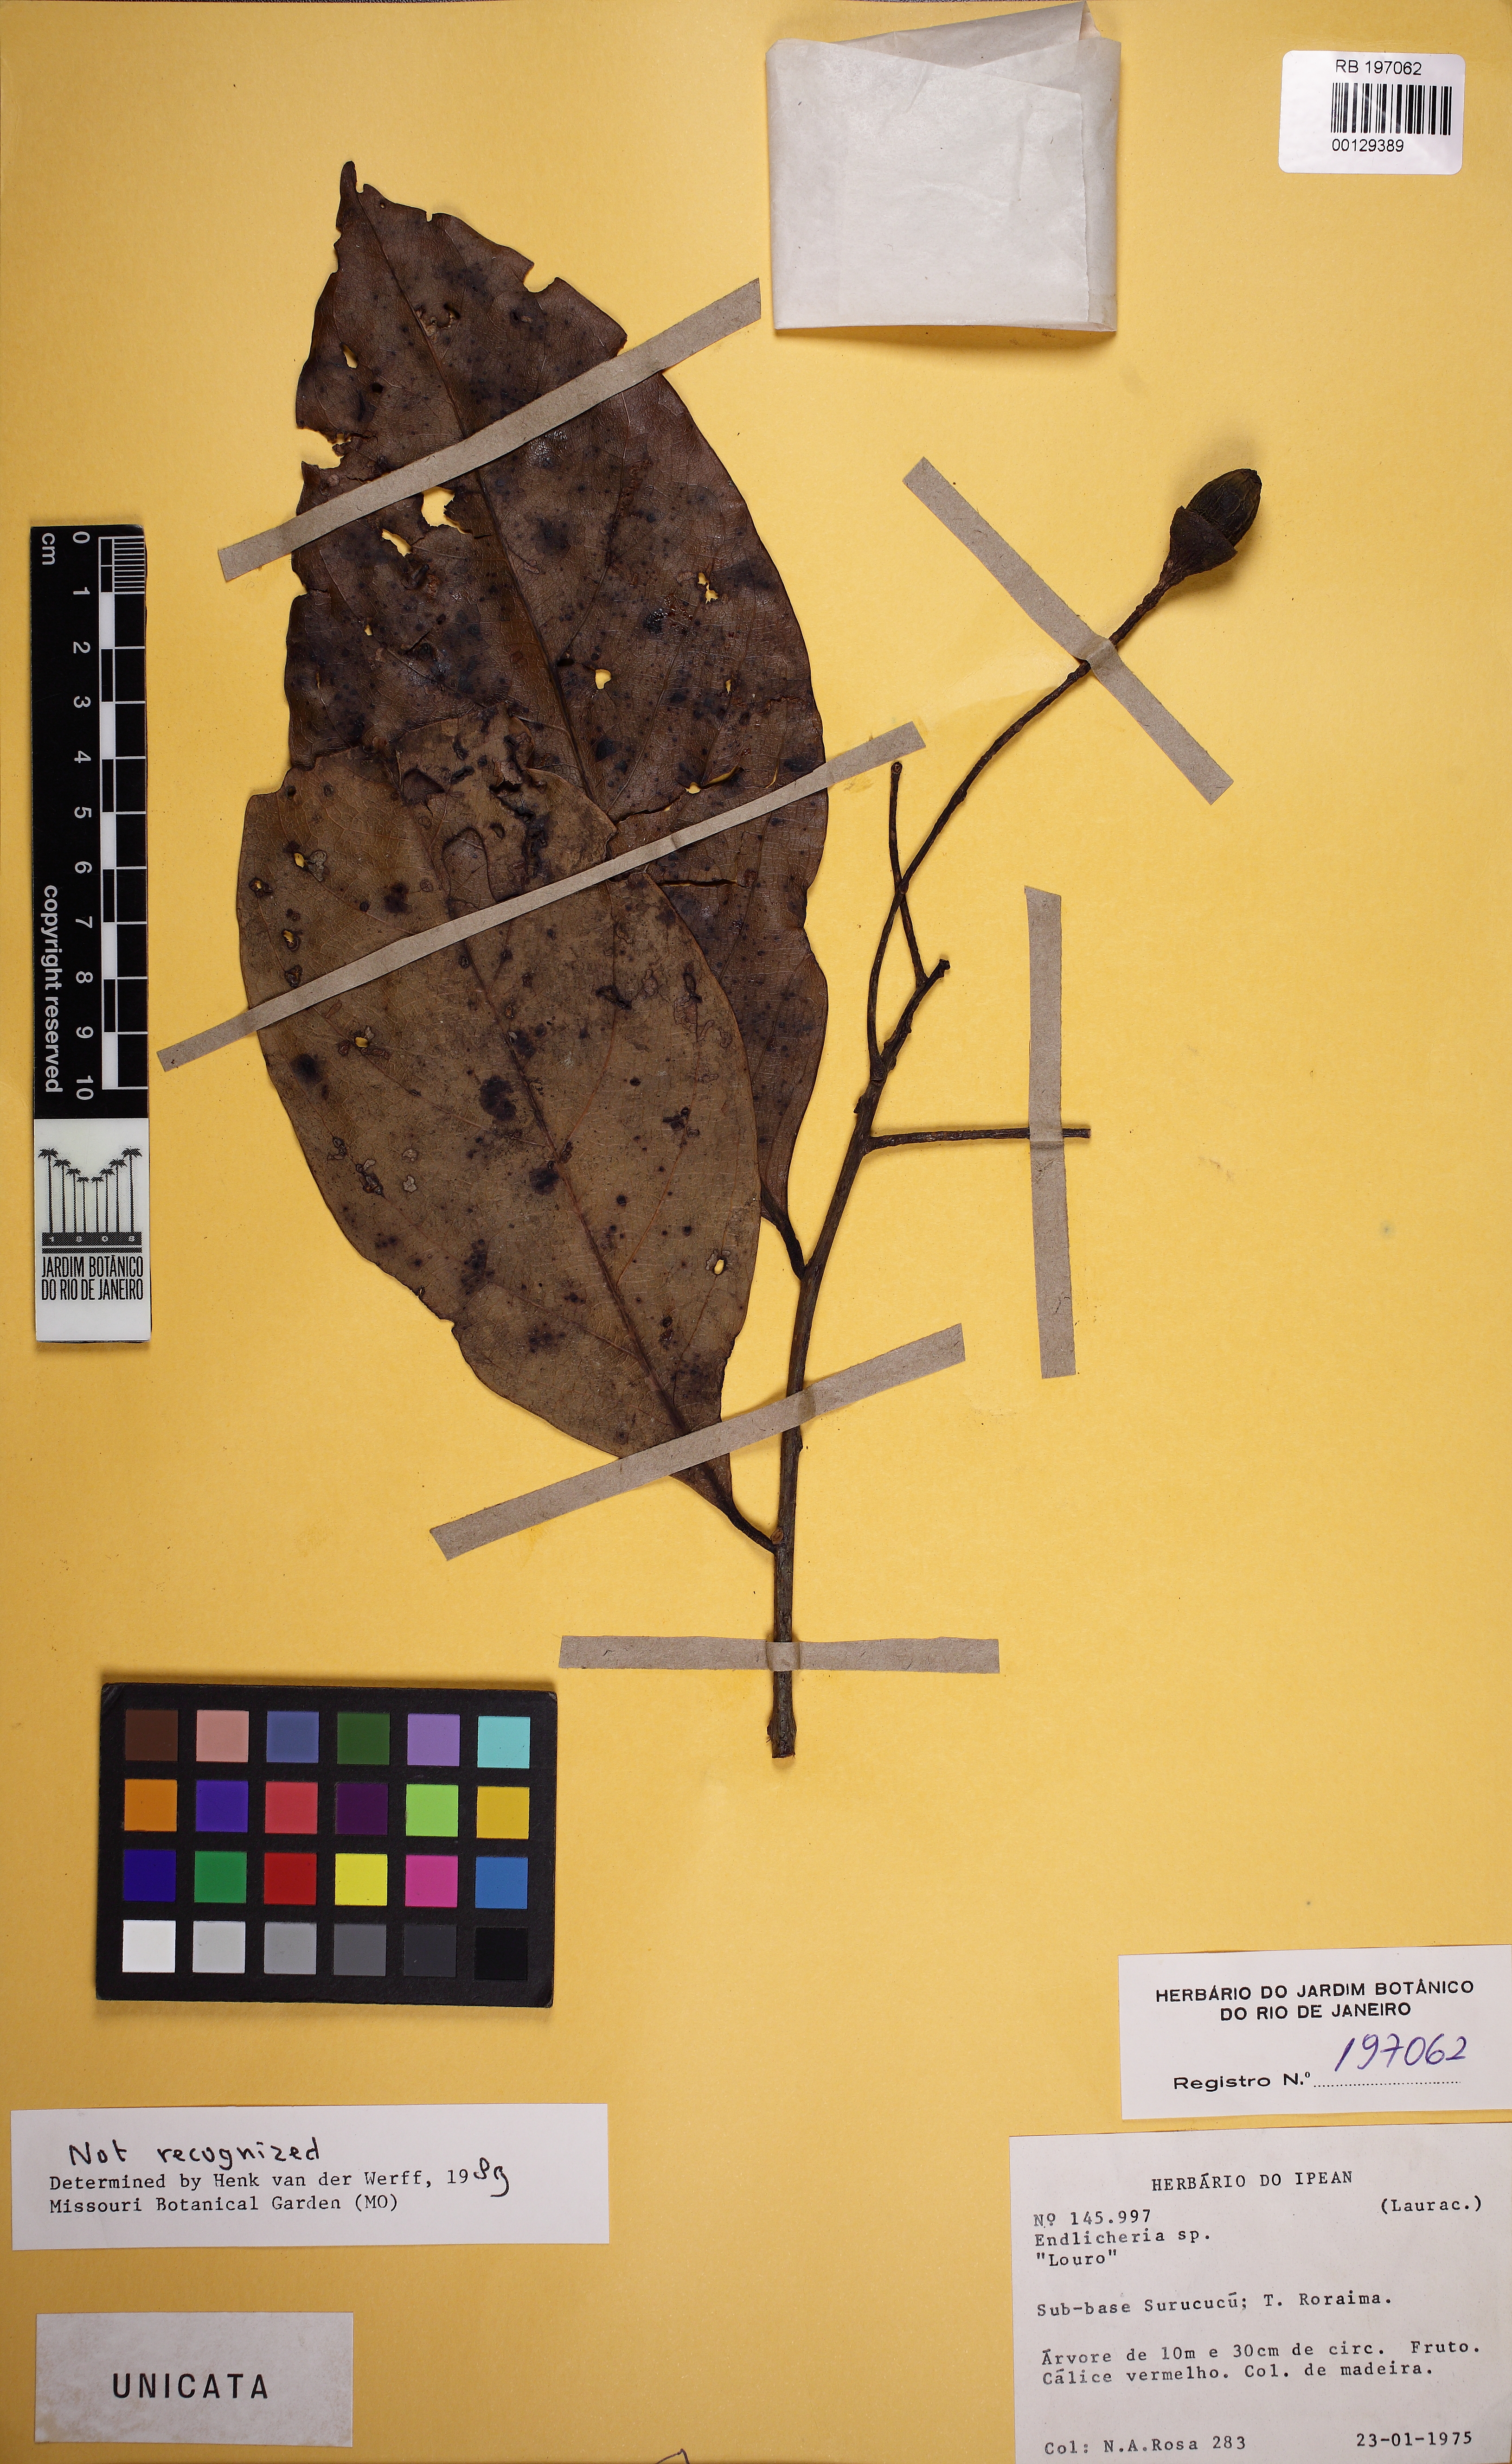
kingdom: Plantae
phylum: Tracheophyta
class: Magnoliopsida
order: Laurales
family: Lauraceae
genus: Endlicheria
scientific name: Endlicheria
